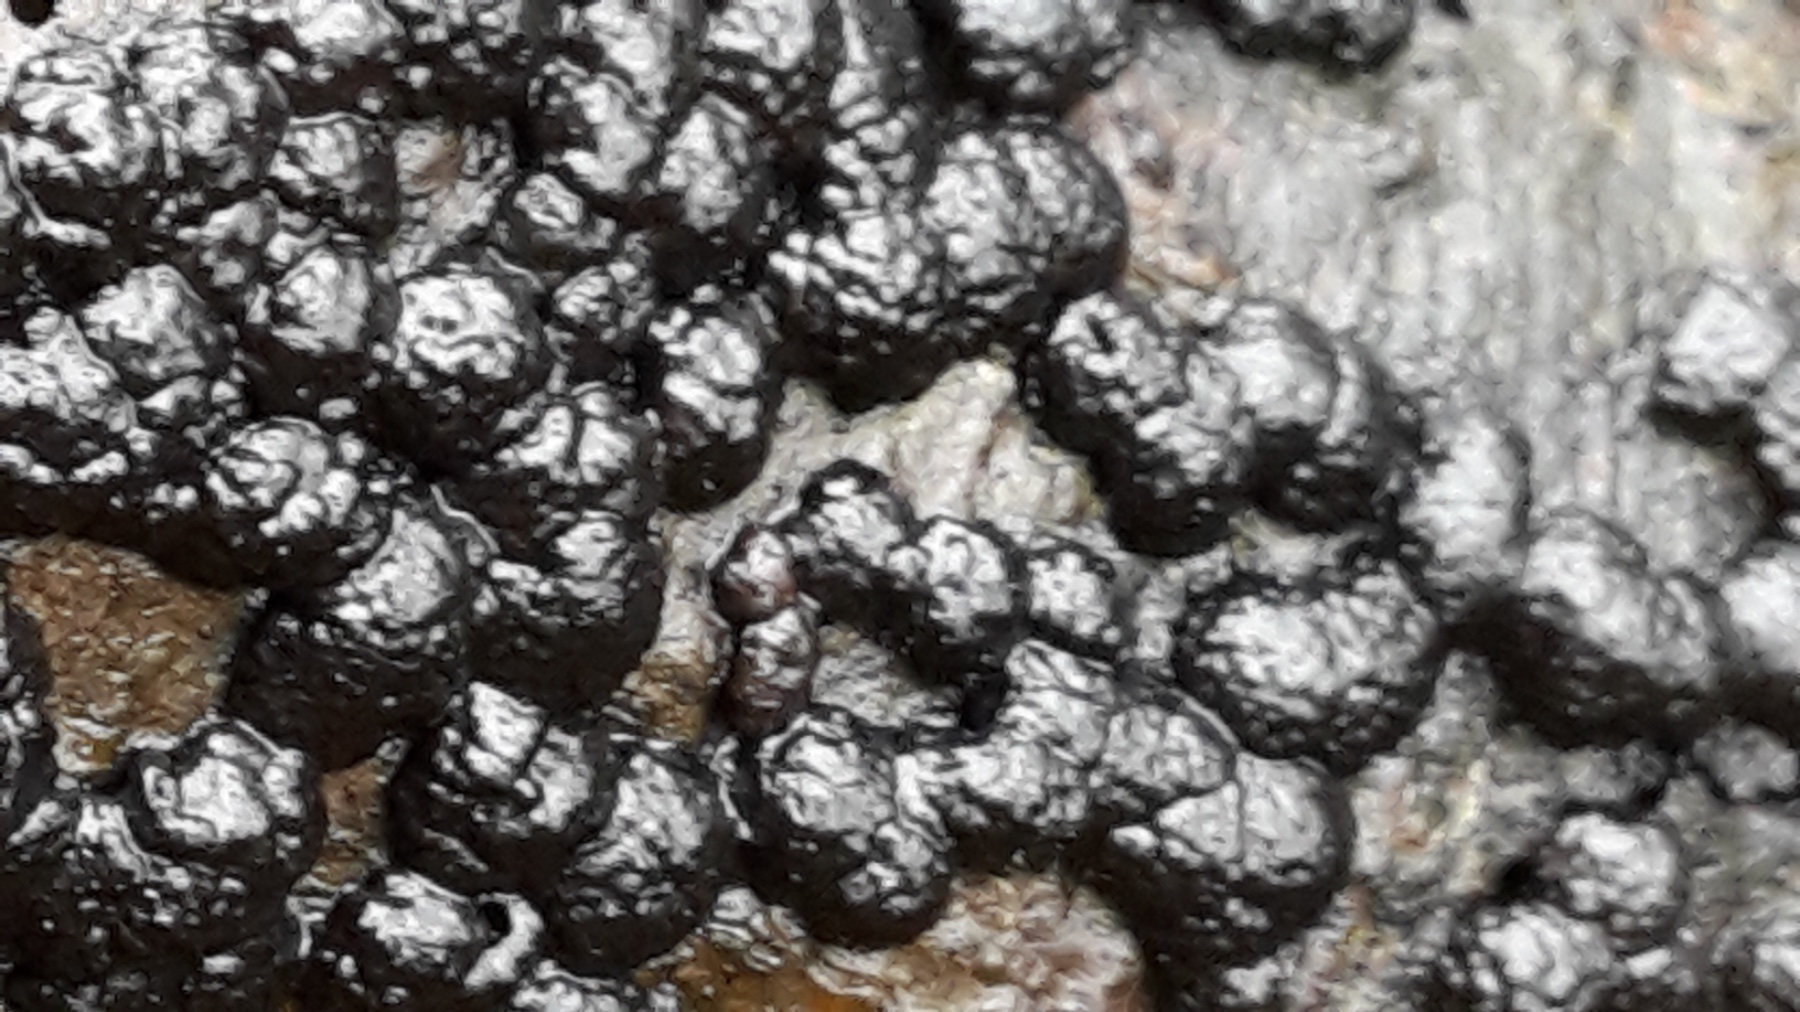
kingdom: Fungi
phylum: Ascomycota
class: Sordariomycetes
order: Xylariales
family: Hypoxylaceae
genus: Jackrogersella
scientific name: Jackrogersella cohaerens
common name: sammenflydende kulbær
